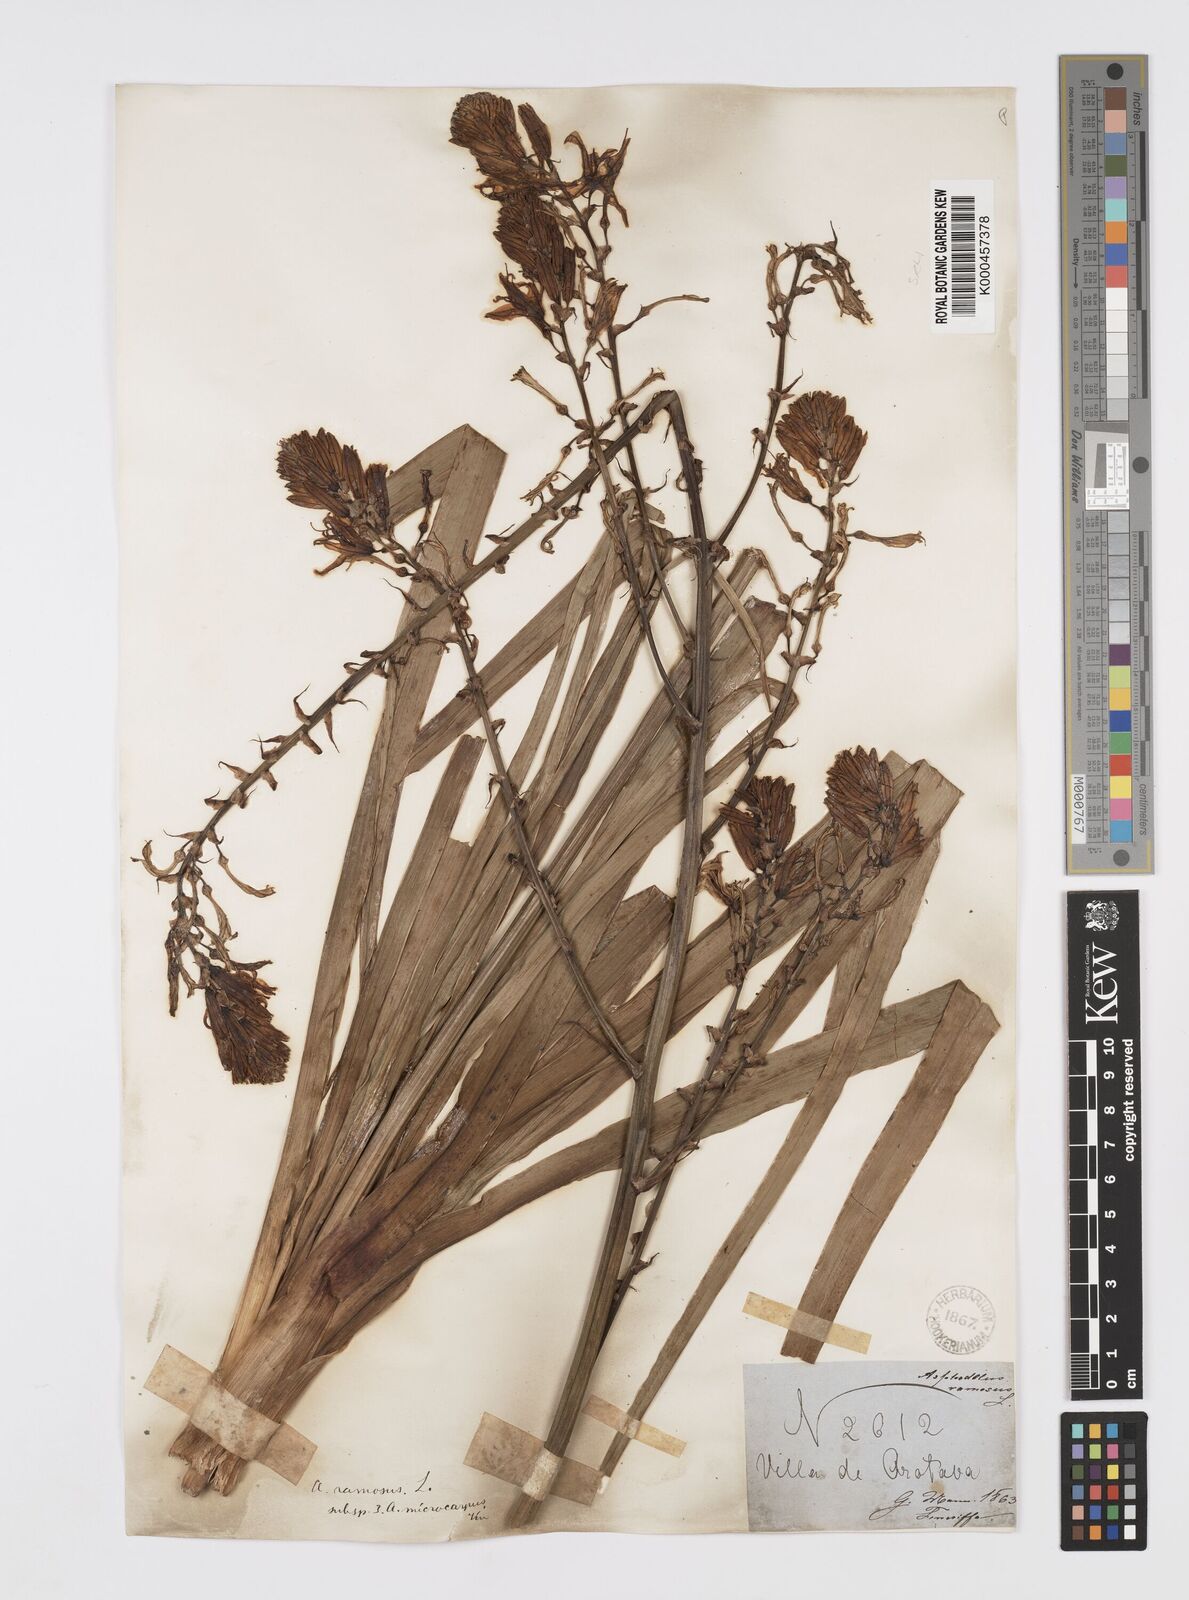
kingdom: Plantae
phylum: Tracheophyta
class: Liliopsida
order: Asparagales
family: Asphodelaceae
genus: Asphodelus
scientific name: Asphodelus aestivus
